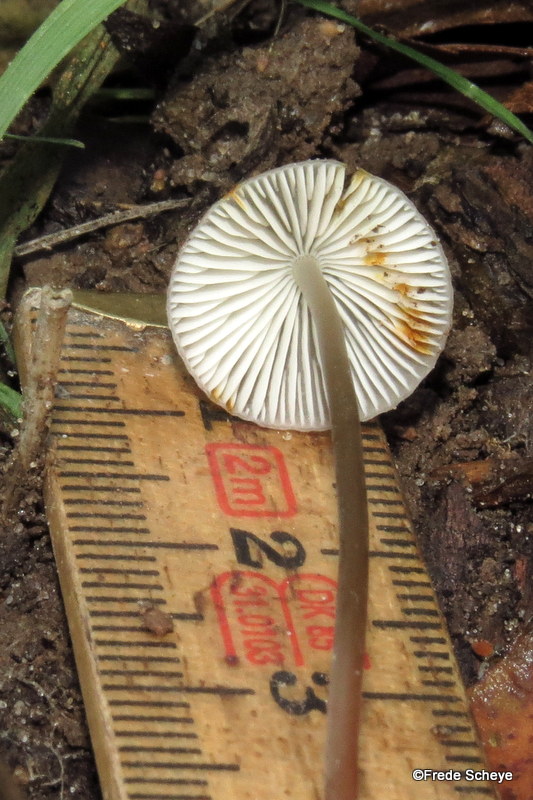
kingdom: Fungi
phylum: Basidiomycota
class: Agaricomycetes
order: Agaricales
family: Mycenaceae
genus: Mycena
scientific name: Mycena crocata
